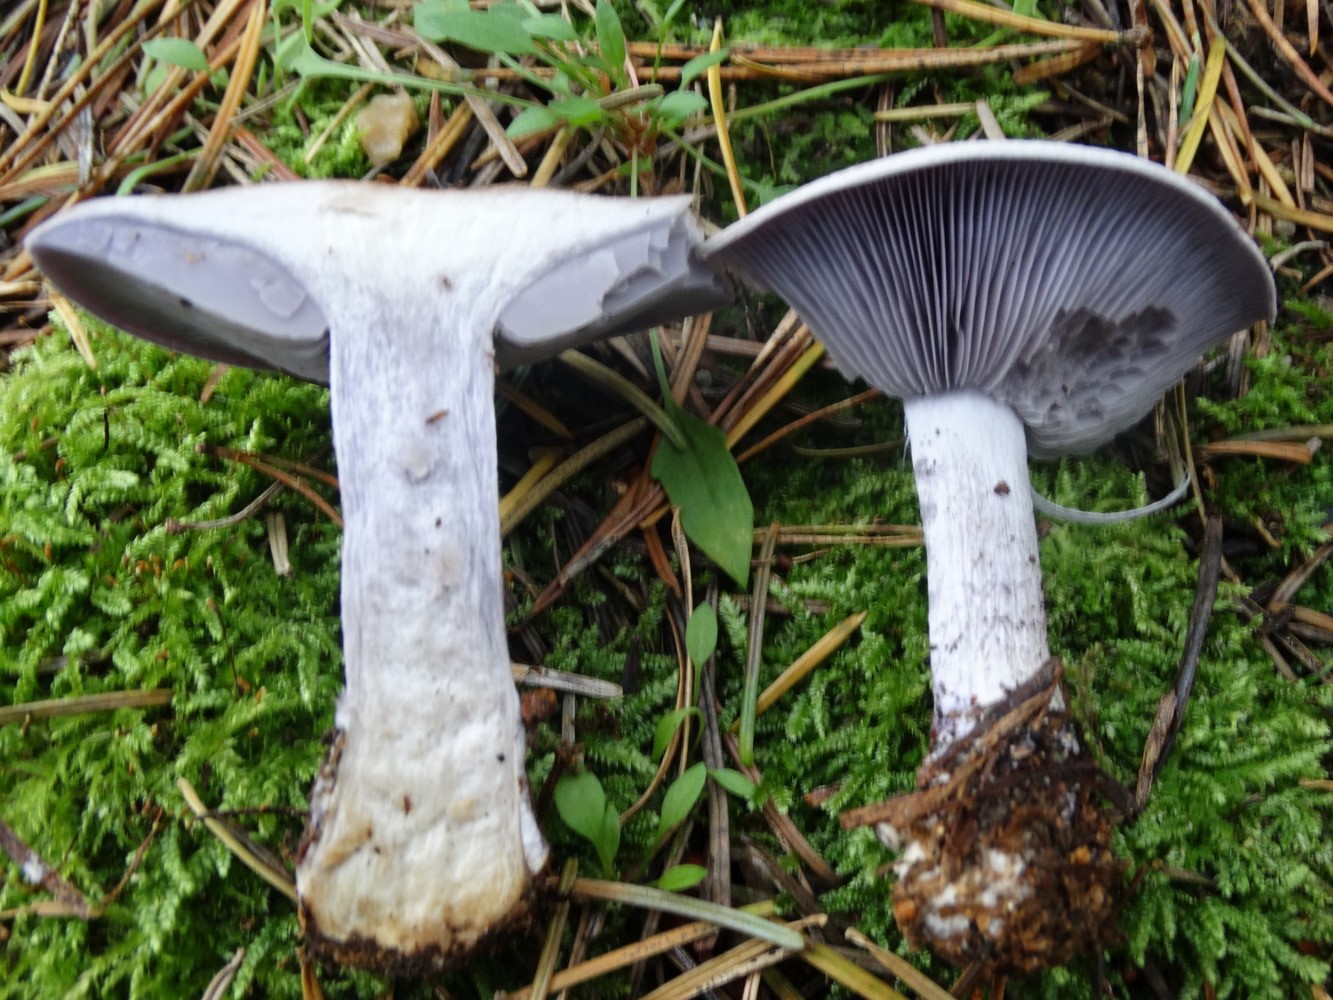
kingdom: Fungi
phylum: Basidiomycota
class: Agaricomycetes
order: Agaricales
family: Tricholomataceae
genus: Lepista
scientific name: Lepista nuda
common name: violet hekseringshat
